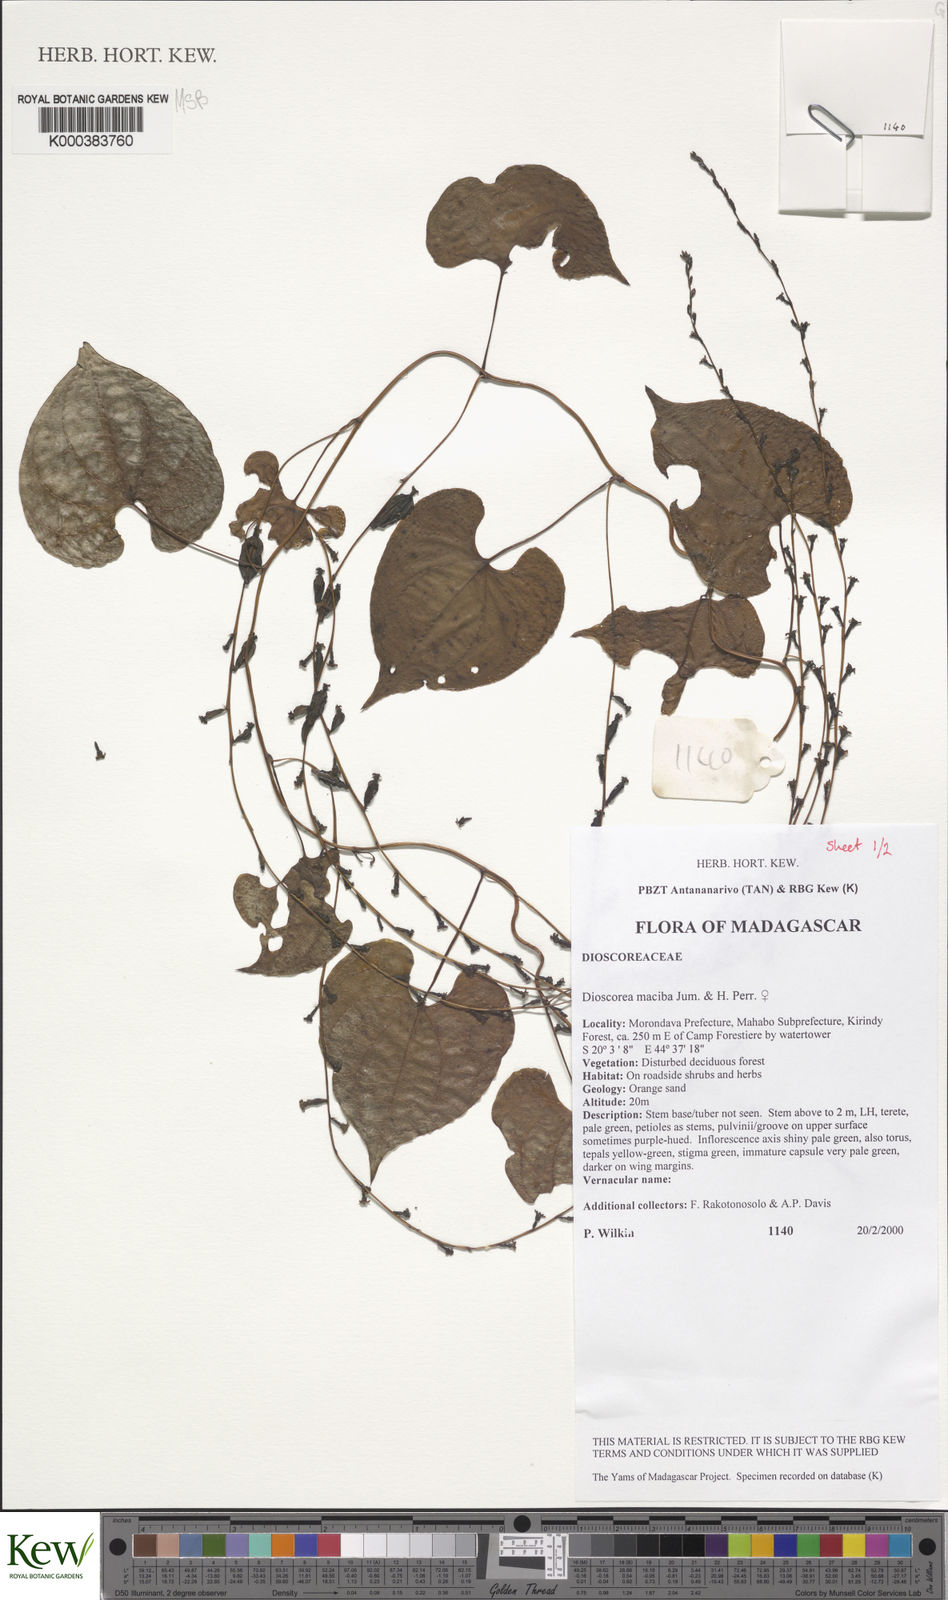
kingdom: Plantae
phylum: Tracheophyta
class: Liliopsida
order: Dioscoreales
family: Dioscoreaceae
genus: Dioscorea
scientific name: Dioscorea
